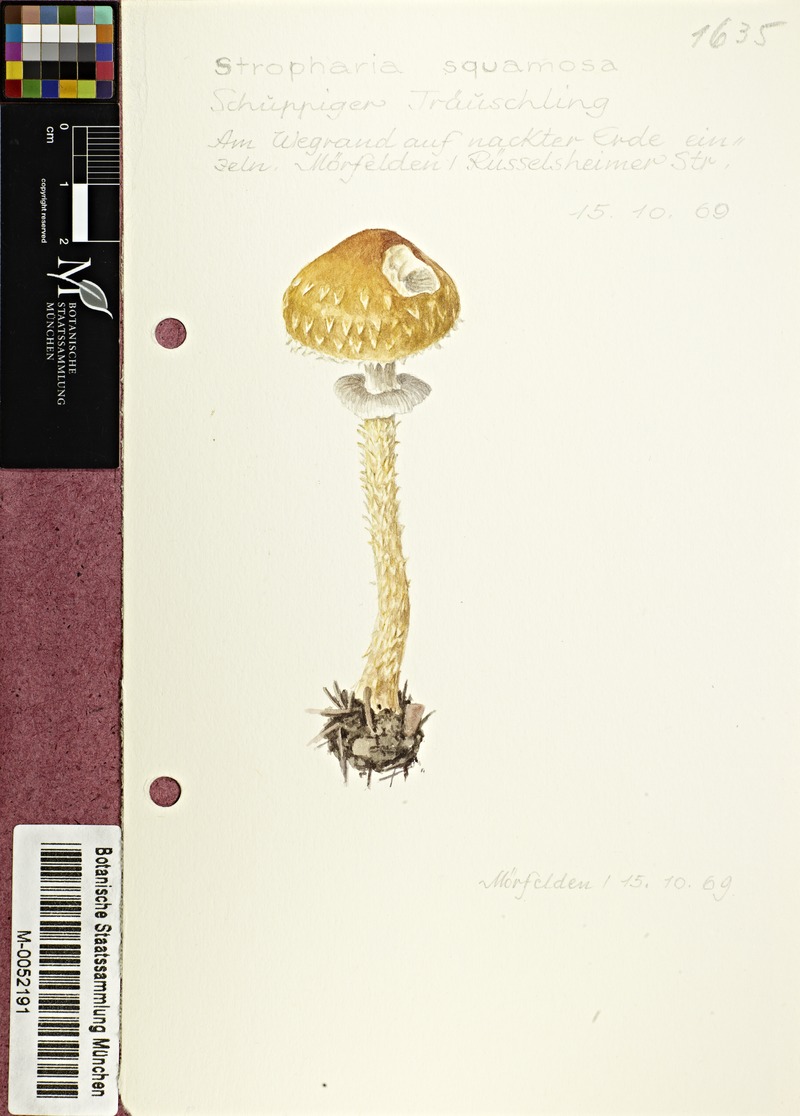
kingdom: Fungi
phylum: Basidiomycota
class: Agaricomycetes
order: Agaricales
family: Strophariaceae
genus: Leratiomyces
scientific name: Leratiomyces squamosus
